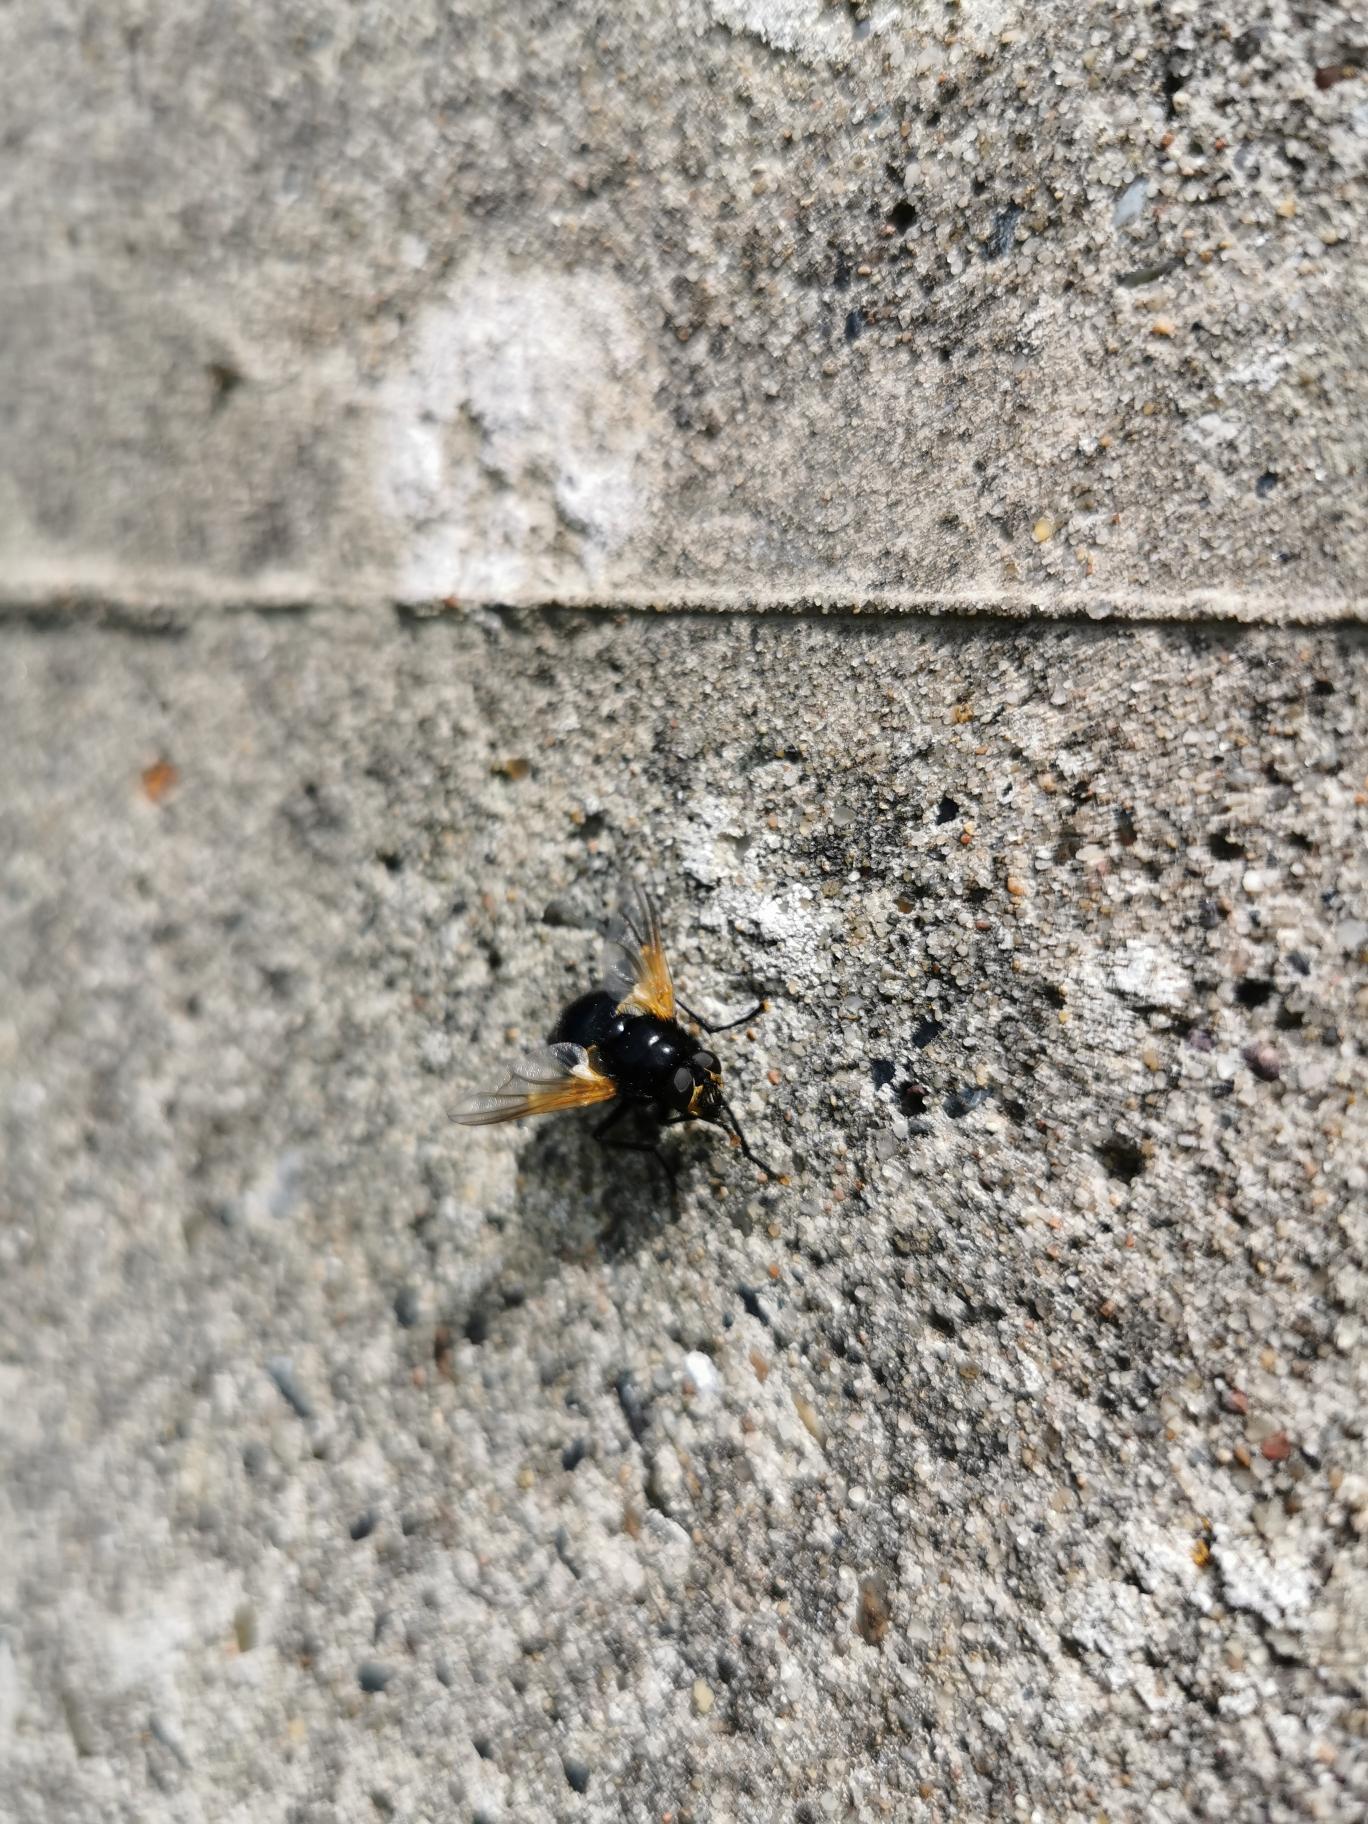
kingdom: Animalia
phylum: Arthropoda
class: Insecta
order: Diptera
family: Muscidae
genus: Mesembrina
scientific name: Mesembrina meridiana
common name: Gulvinget flue
